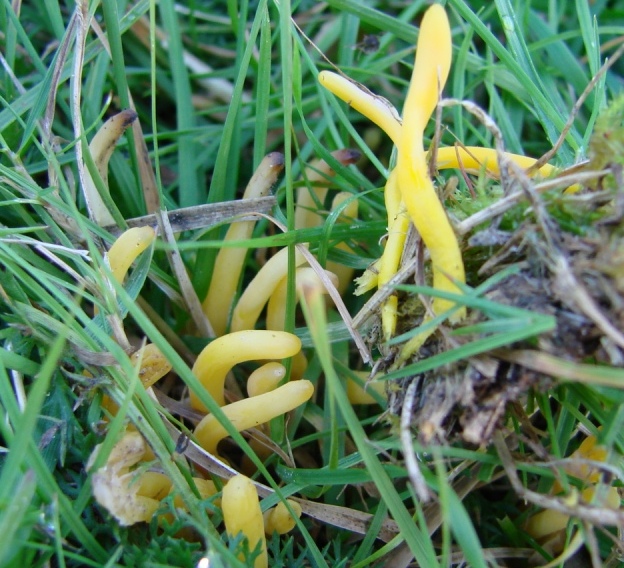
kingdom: Fungi
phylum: Basidiomycota
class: Agaricomycetes
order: Agaricales
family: Clavariaceae
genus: Clavulinopsis
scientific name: Clavulinopsis helvola
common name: orangegul køllesvamp
